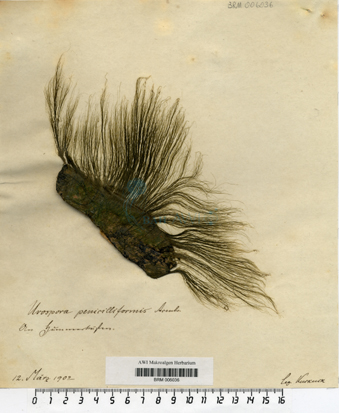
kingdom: Plantae
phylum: Chlorophyta
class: Ulvophyceae
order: Ulotrichales
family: Ulotrichaceae
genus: Urospora
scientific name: Urospora penicilliformis
